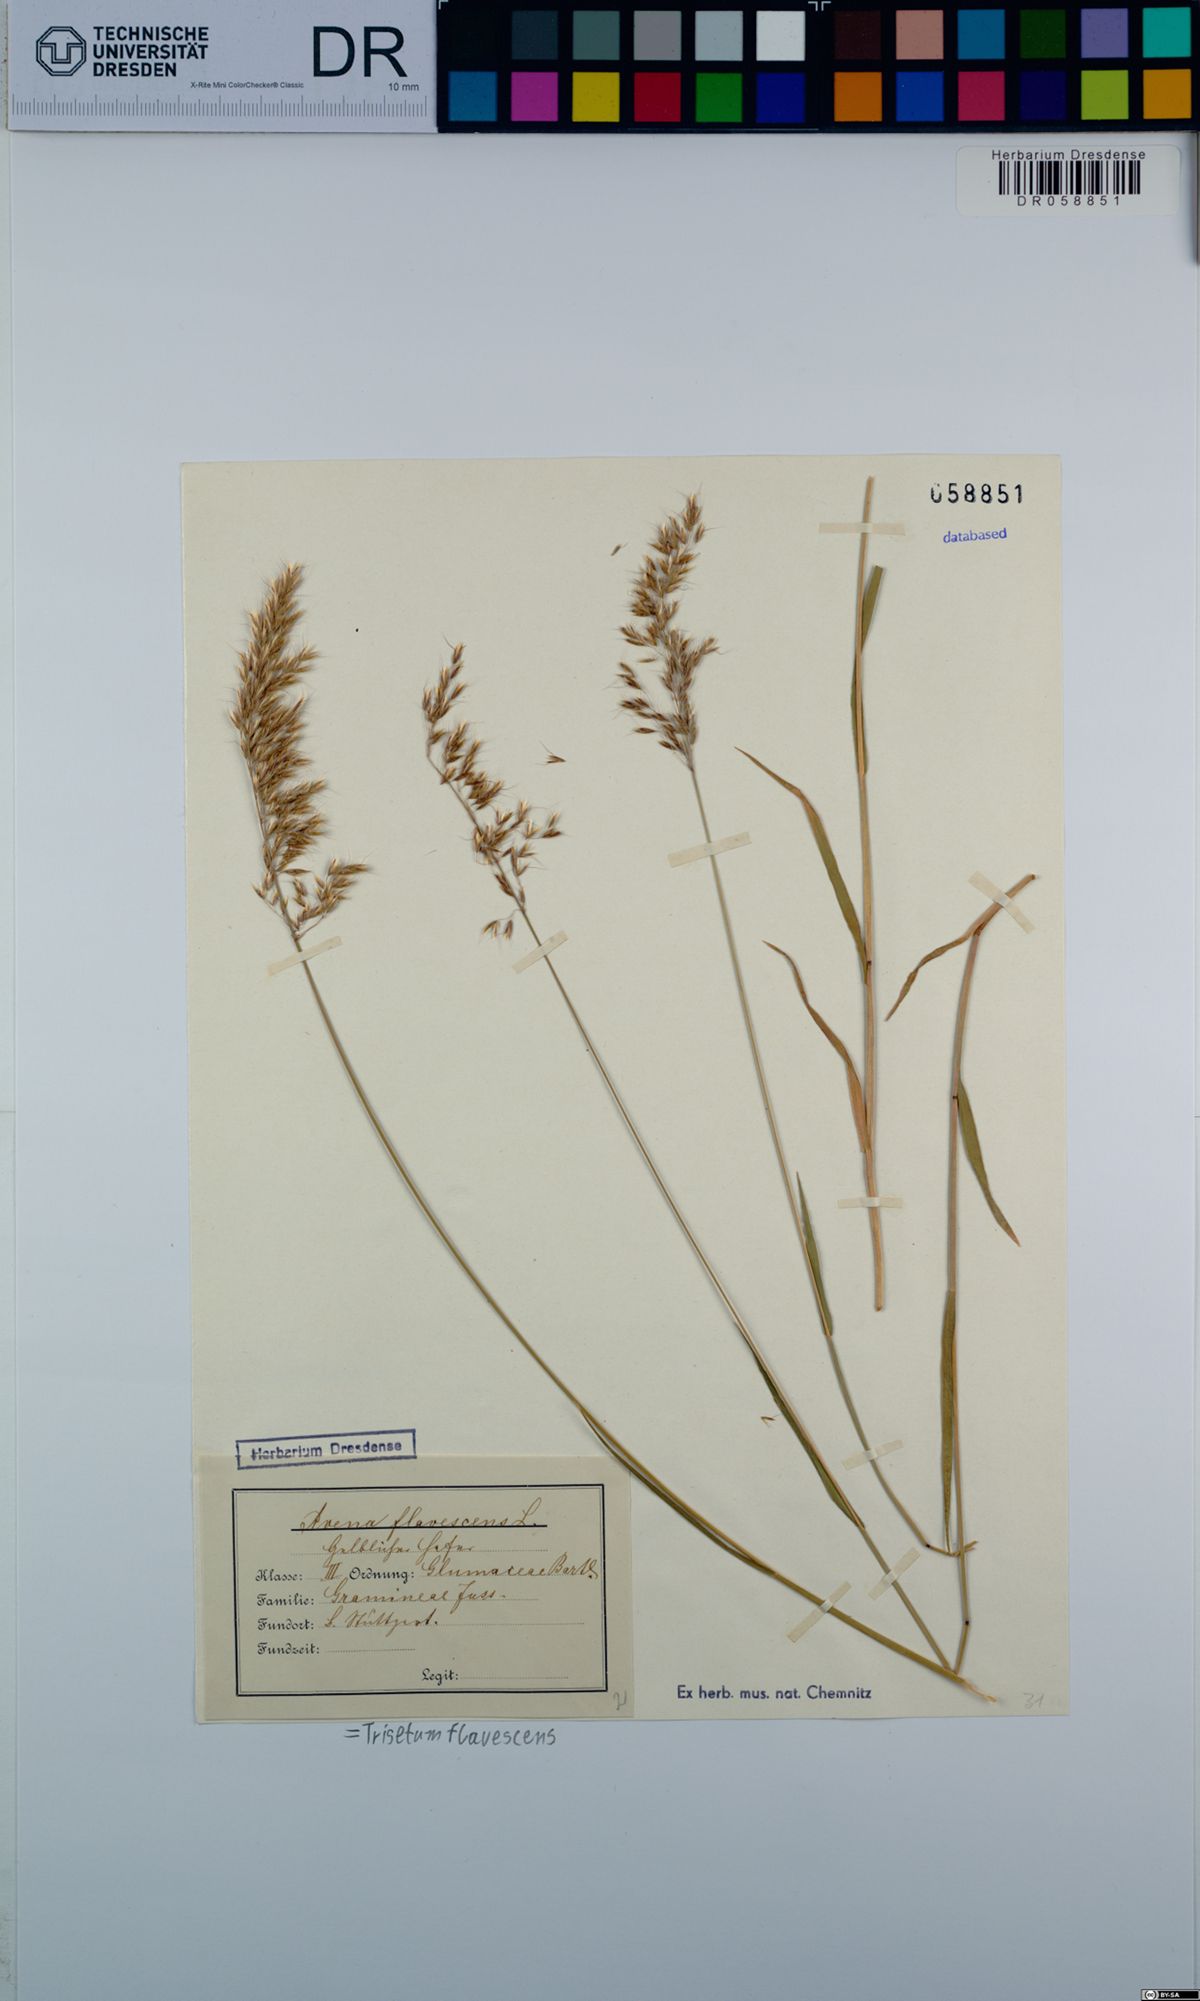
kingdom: Plantae
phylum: Tracheophyta
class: Liliopsida
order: Poales
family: Poaceae
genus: Trisetum
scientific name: Trisetum flavescens
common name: Yellow oat-grass
